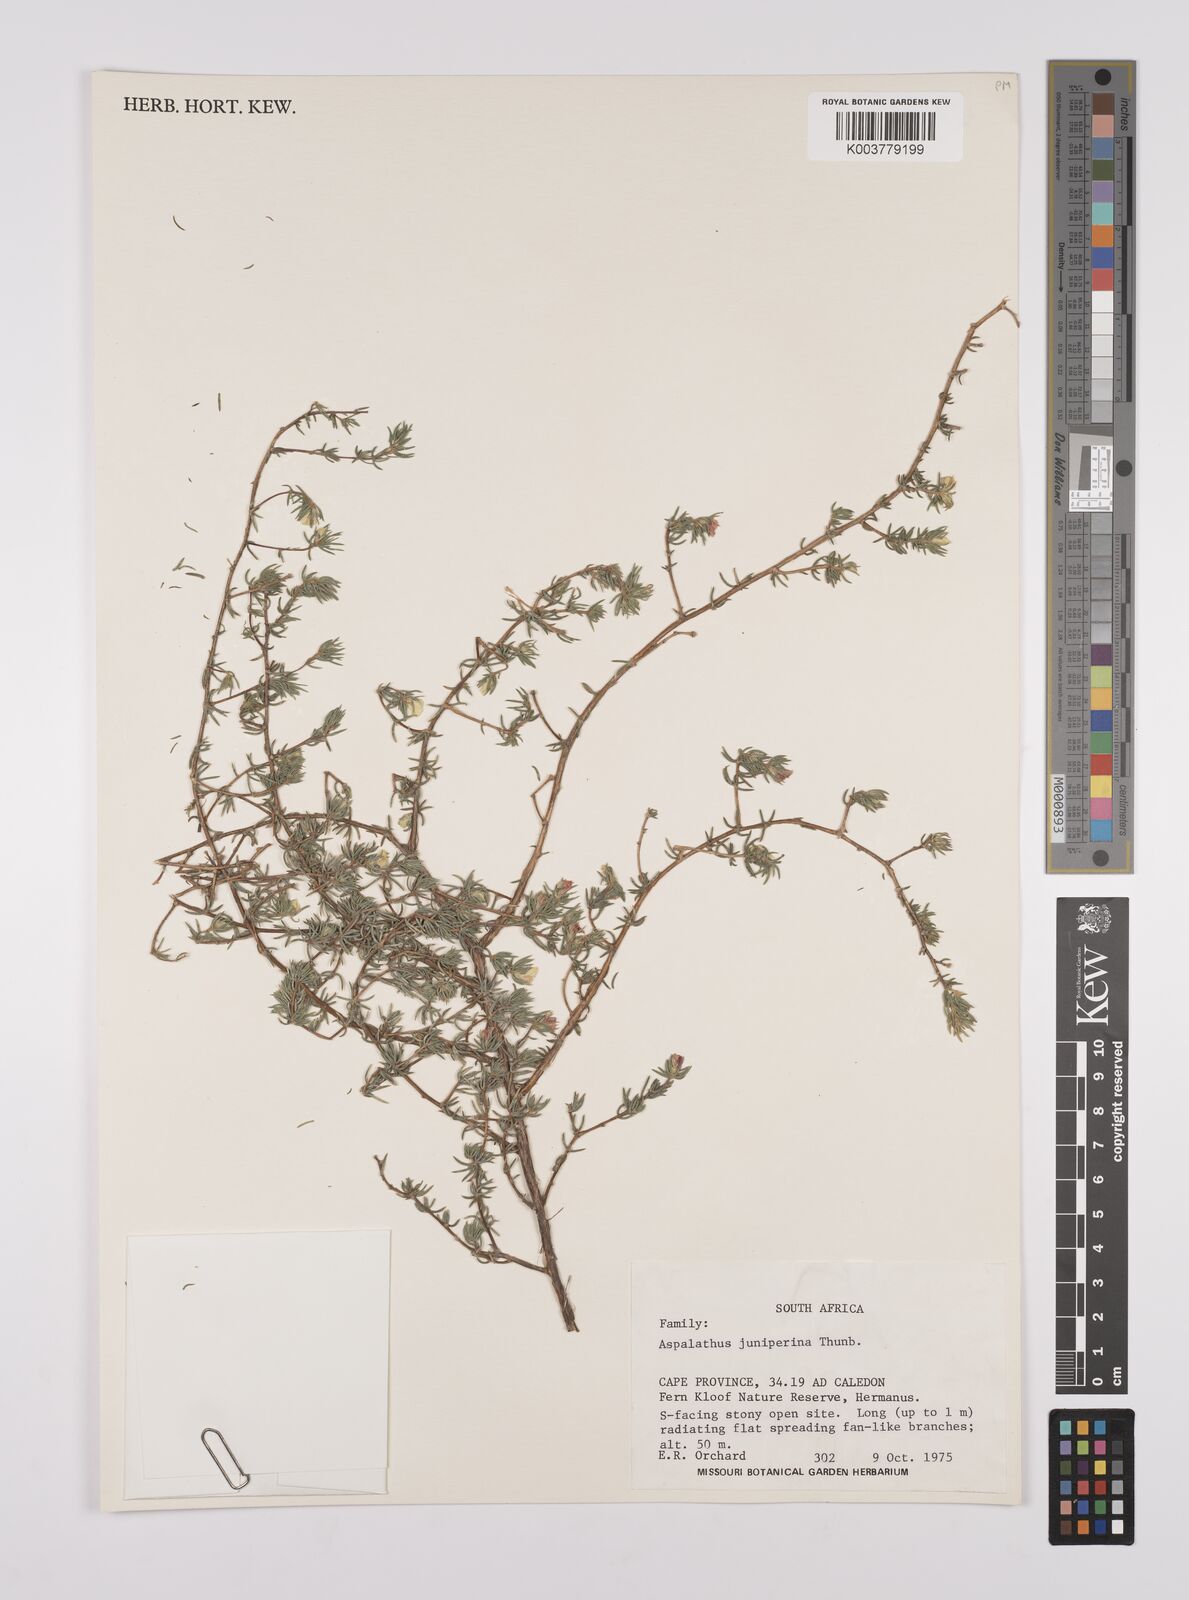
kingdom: Plantae
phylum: Tracheophyta
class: Magnoliopsida
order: Fabales
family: Fabaceae
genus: Aspalathus
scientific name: Aspalathus juniperina
